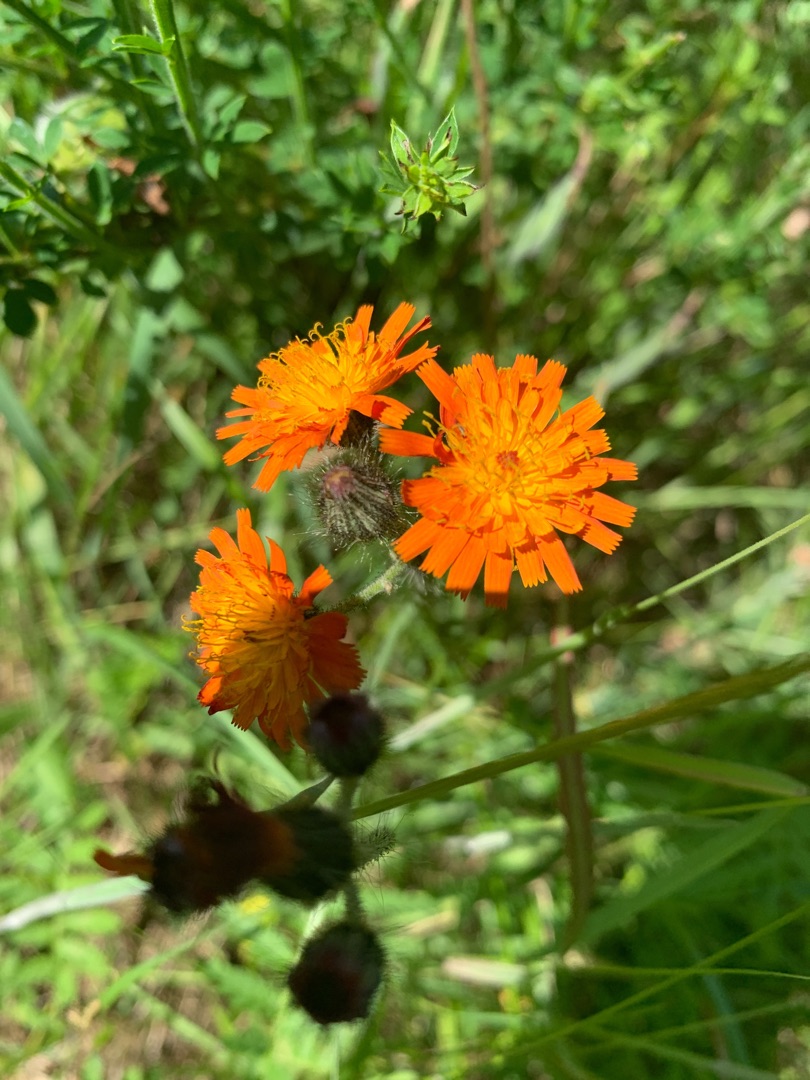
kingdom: Plantae
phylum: Tracheophyta
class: Magnoliopsida
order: Asterales
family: Asteraceae
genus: Pilosella
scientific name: Pilosella aurantiaca
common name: Pomerans-høgeurt
